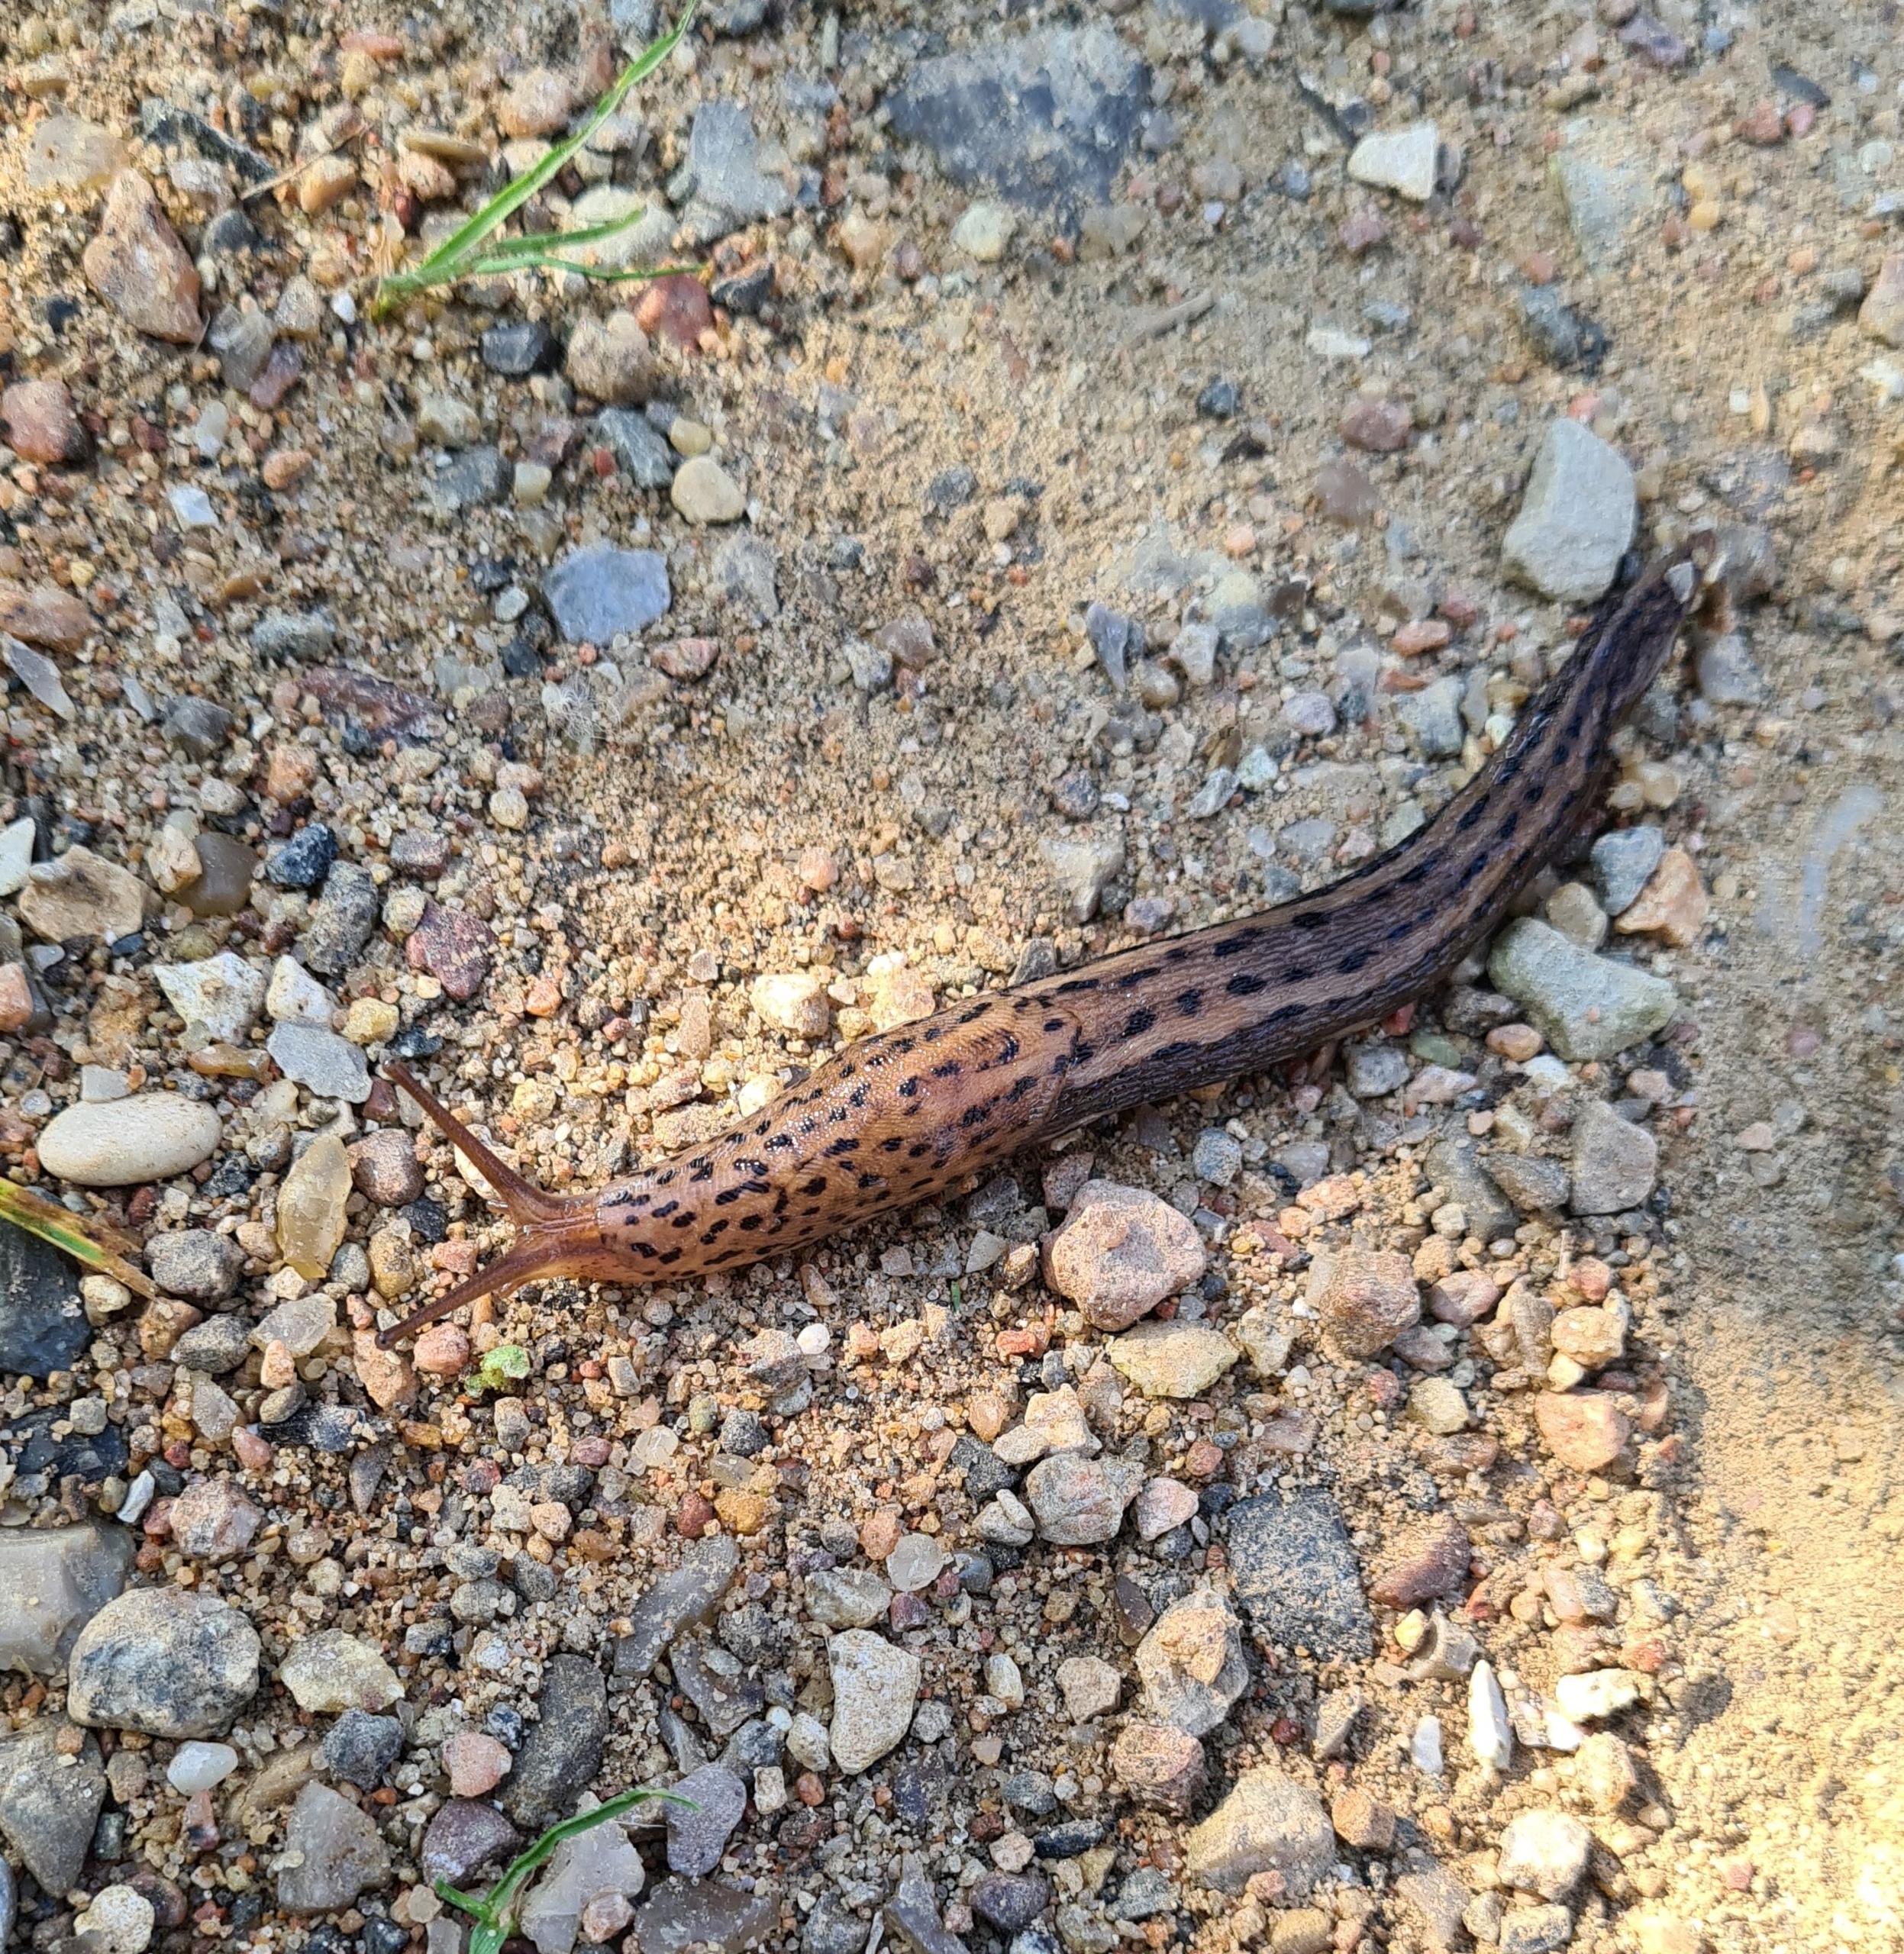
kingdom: Animalia
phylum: Mollusca
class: Gastropoda
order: Stylommatophora
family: Limacidae
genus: Limax
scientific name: Limax maximus
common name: Pantersnegl
